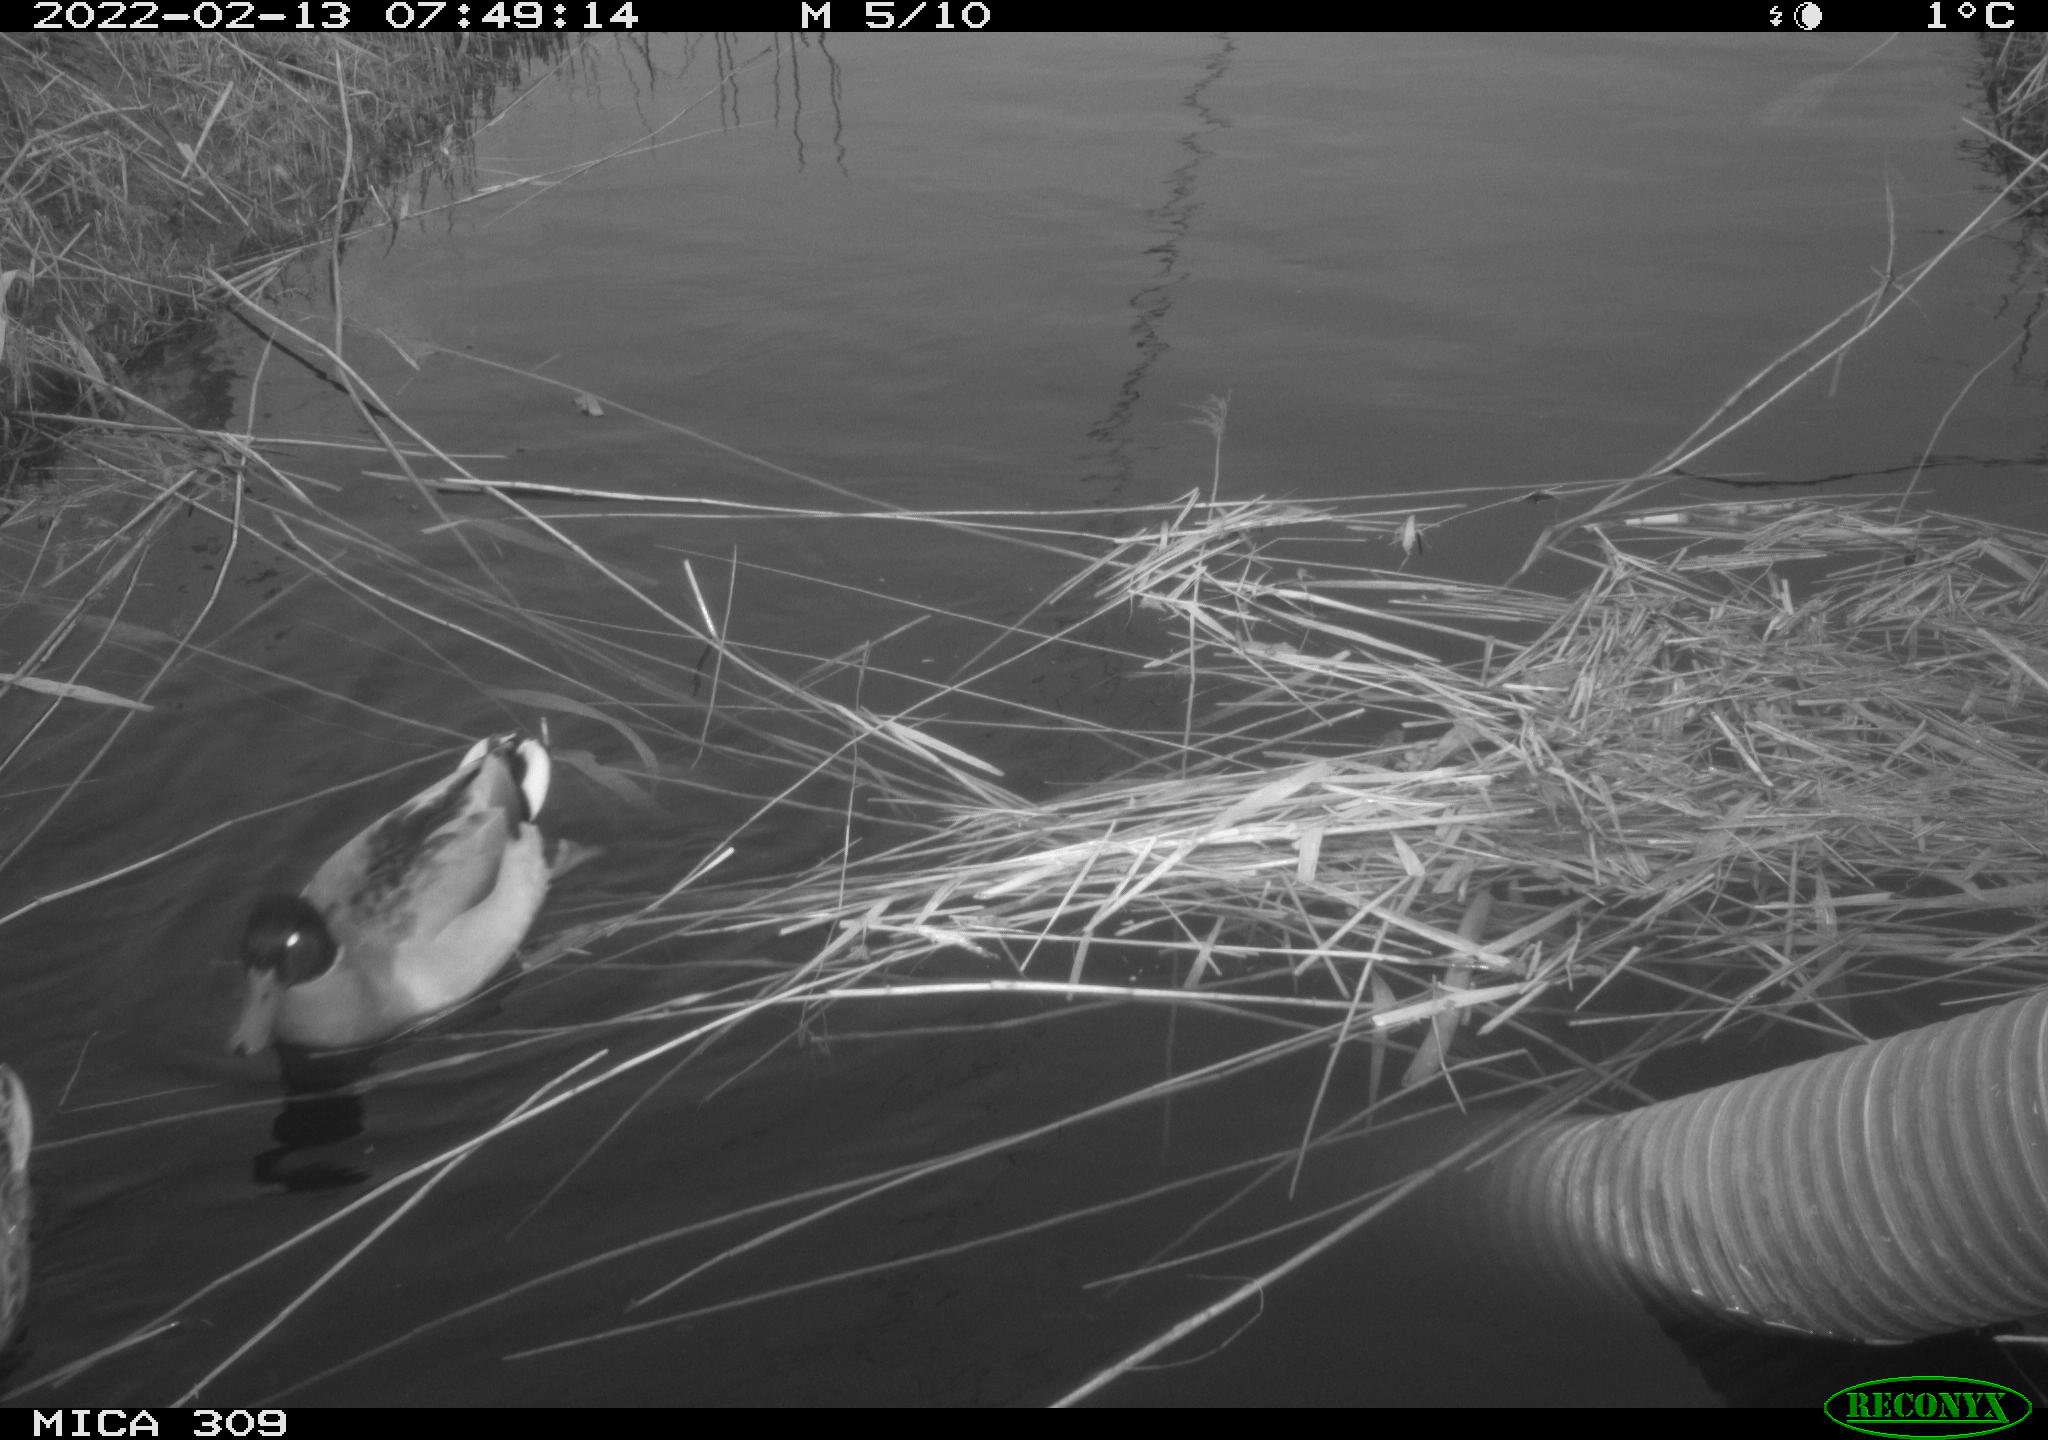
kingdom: Animalia
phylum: Chordata
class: Aves
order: Anseriformes
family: Anatidae
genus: Anas
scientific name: Anas platyrhynchos
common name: Mallard
